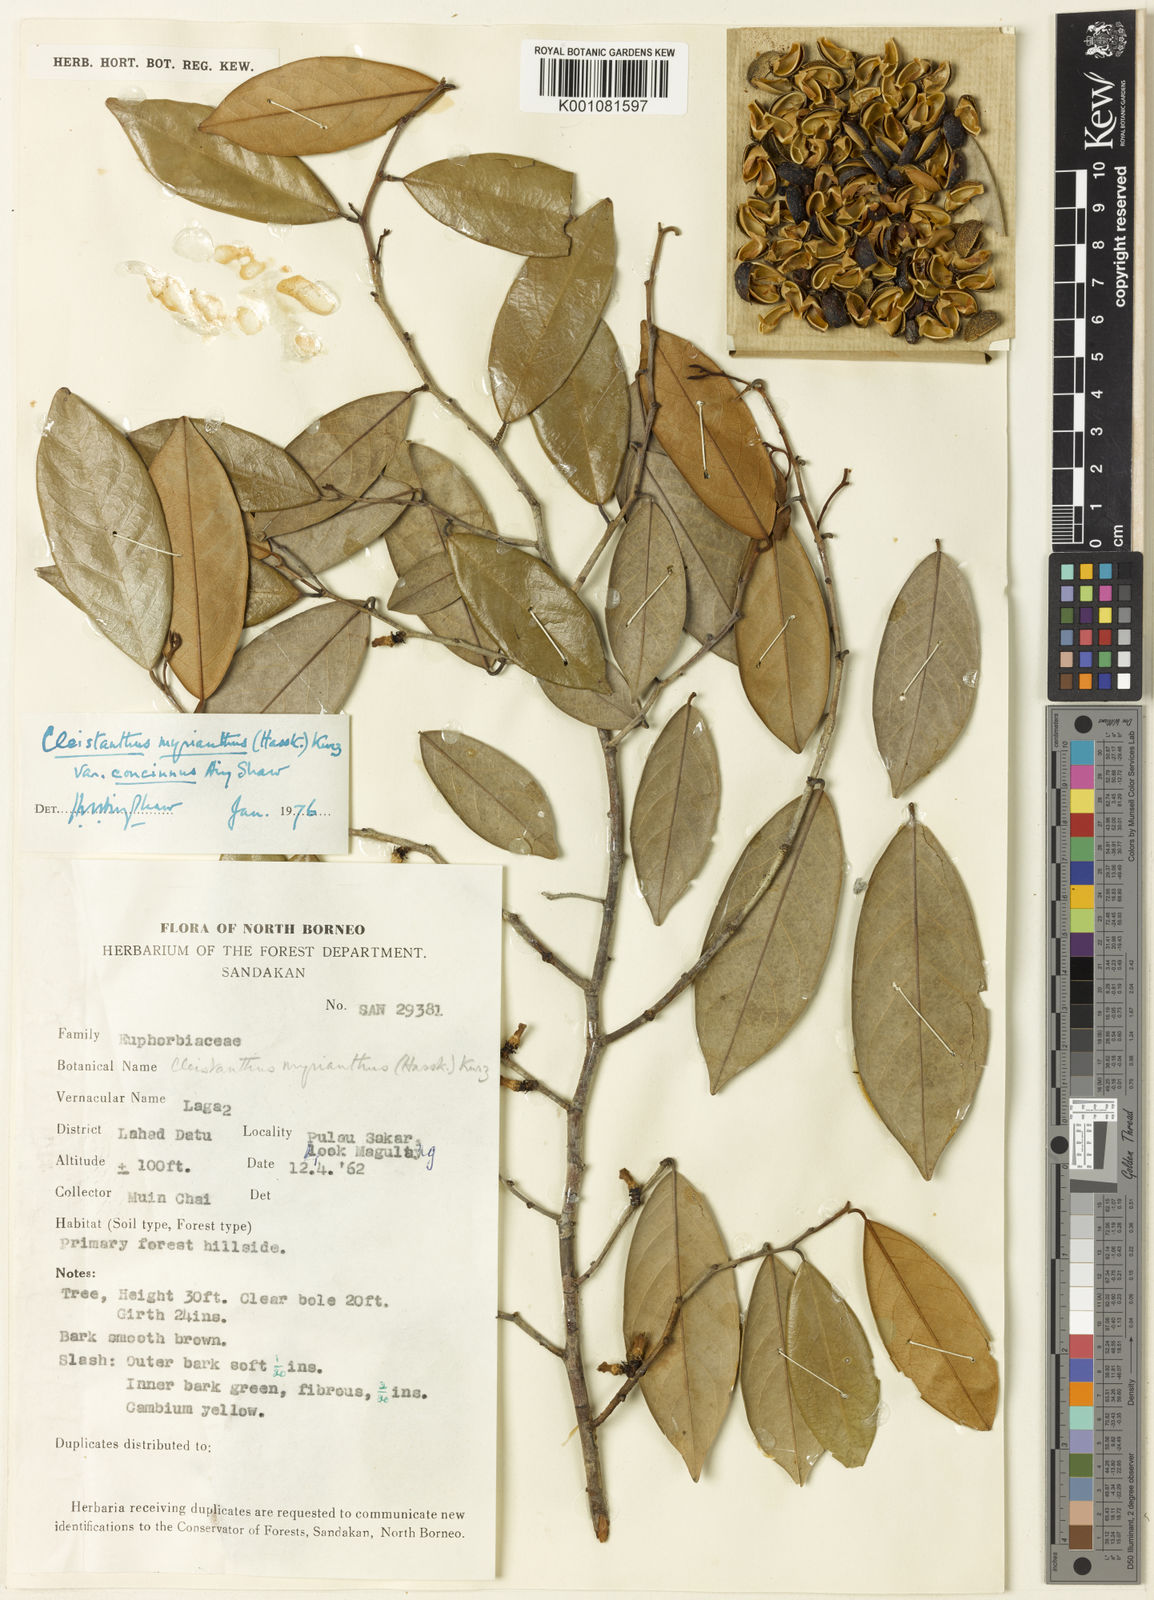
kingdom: Plantae
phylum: Tracheophyta
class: Magnoliopsida
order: Malpighiales
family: Phyllanthaceae
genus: Cleistanthus
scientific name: Cleistanthus oblongifolius
